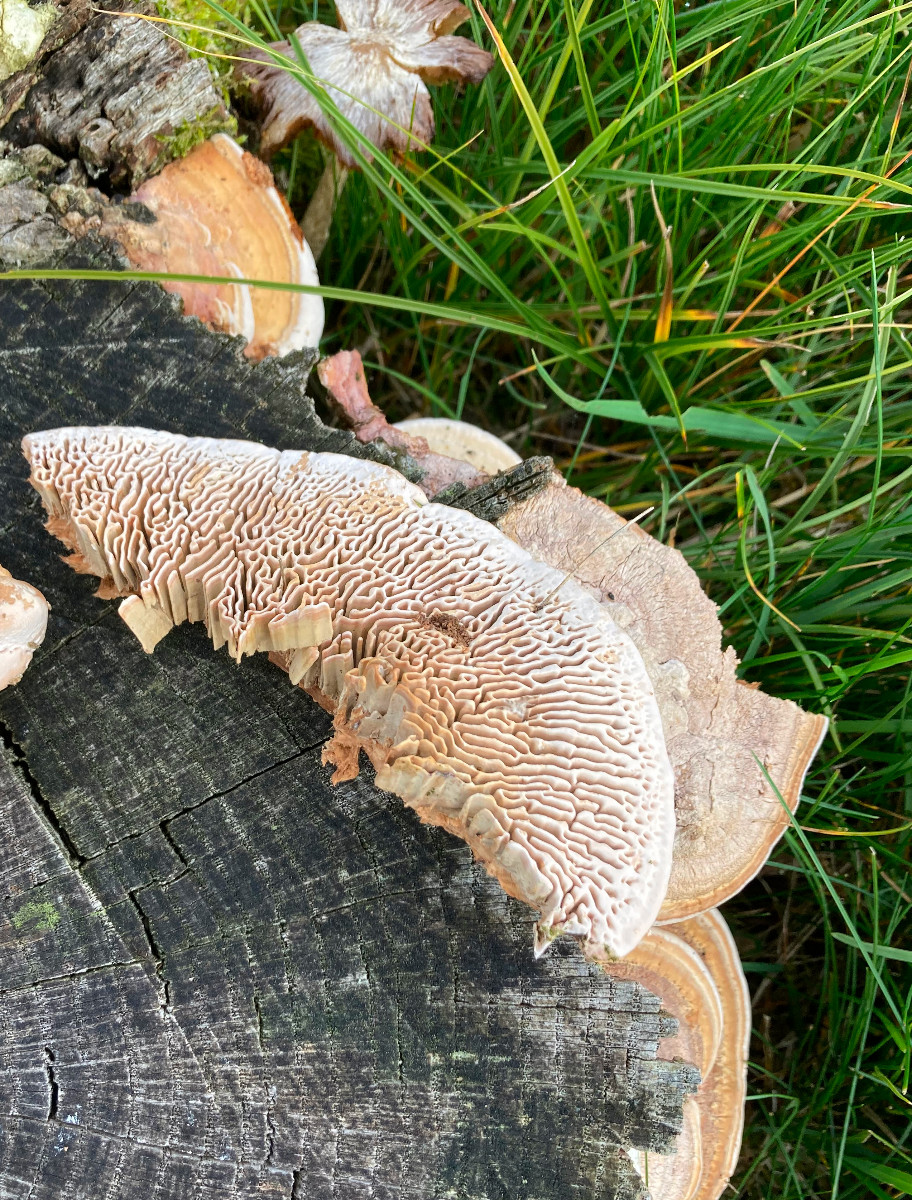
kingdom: Fungi
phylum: Basidiomycota
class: Agaricomycetes
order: Polyporales
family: Fomitopsidaceae
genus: Daedalea
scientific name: Daedalea quercina
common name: ege-labyrintsvamp
